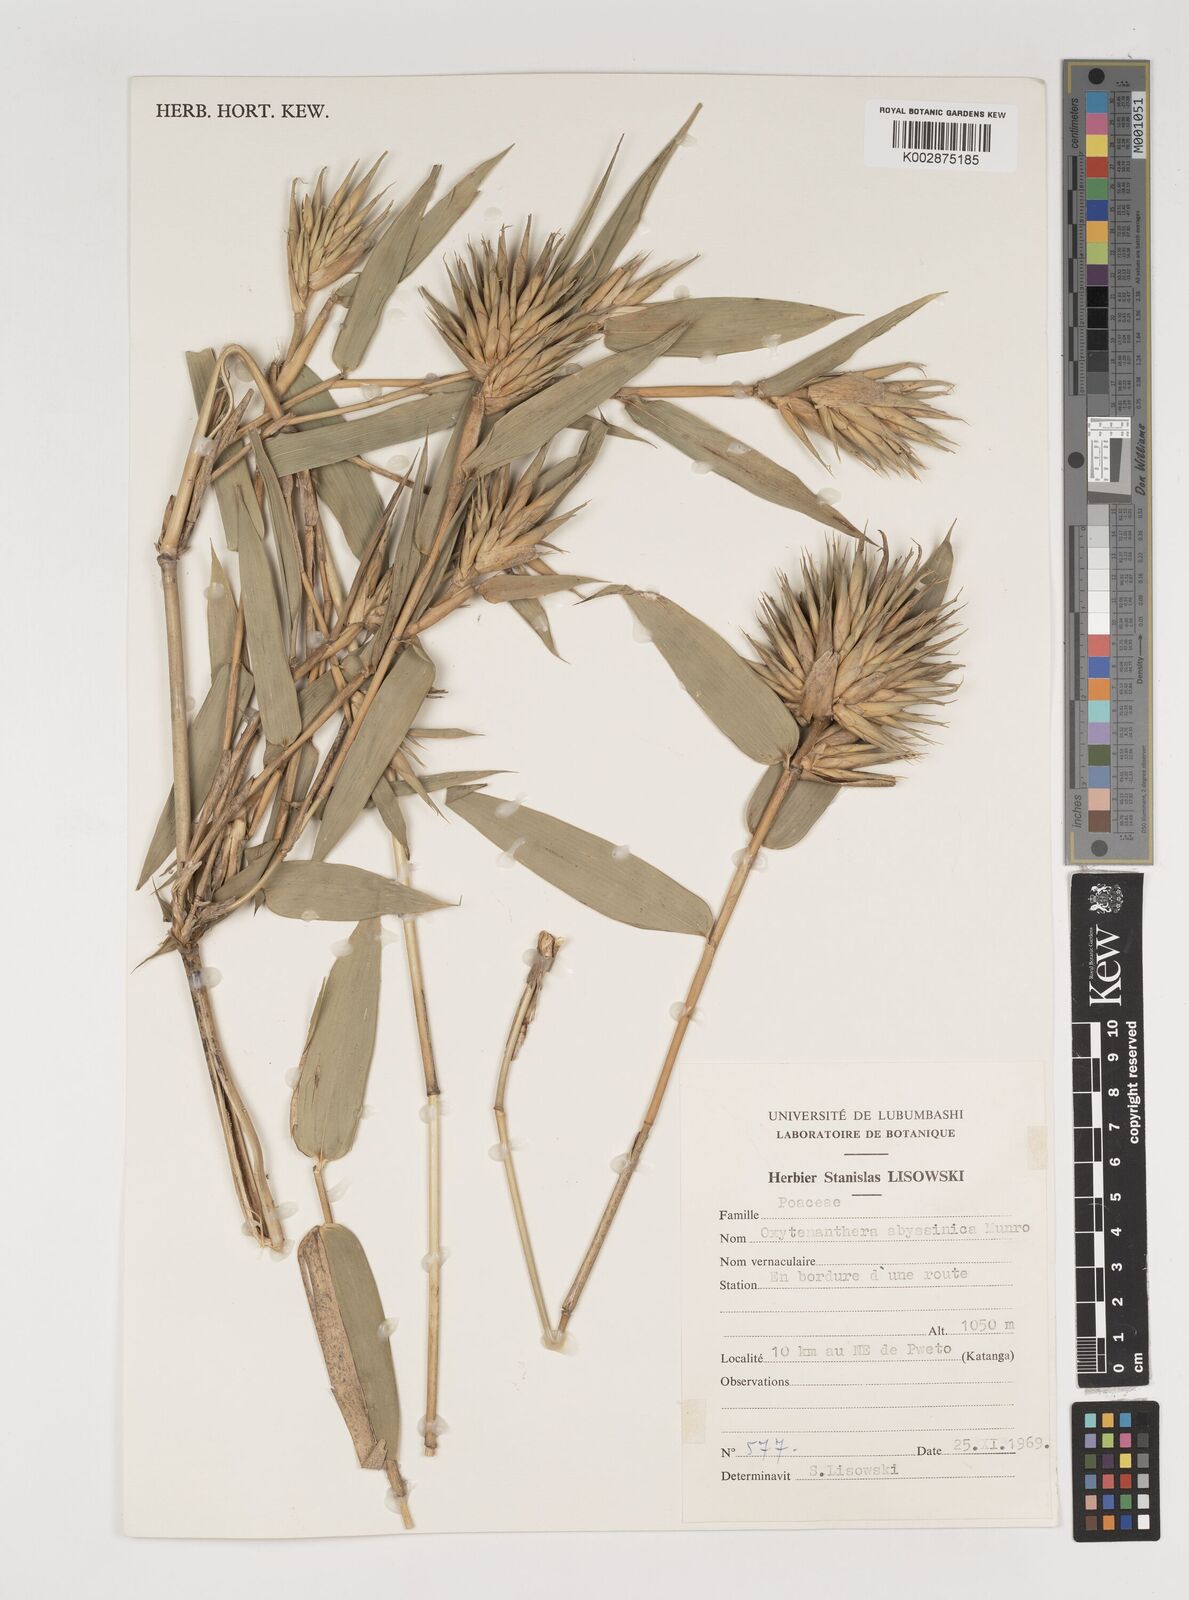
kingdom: Plantae
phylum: Tracheophyta
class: Liliopsida
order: Poales
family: Poaceae
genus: Oxytenanthera
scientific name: Oxytenanthera abyssinica
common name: Wine bamboo
